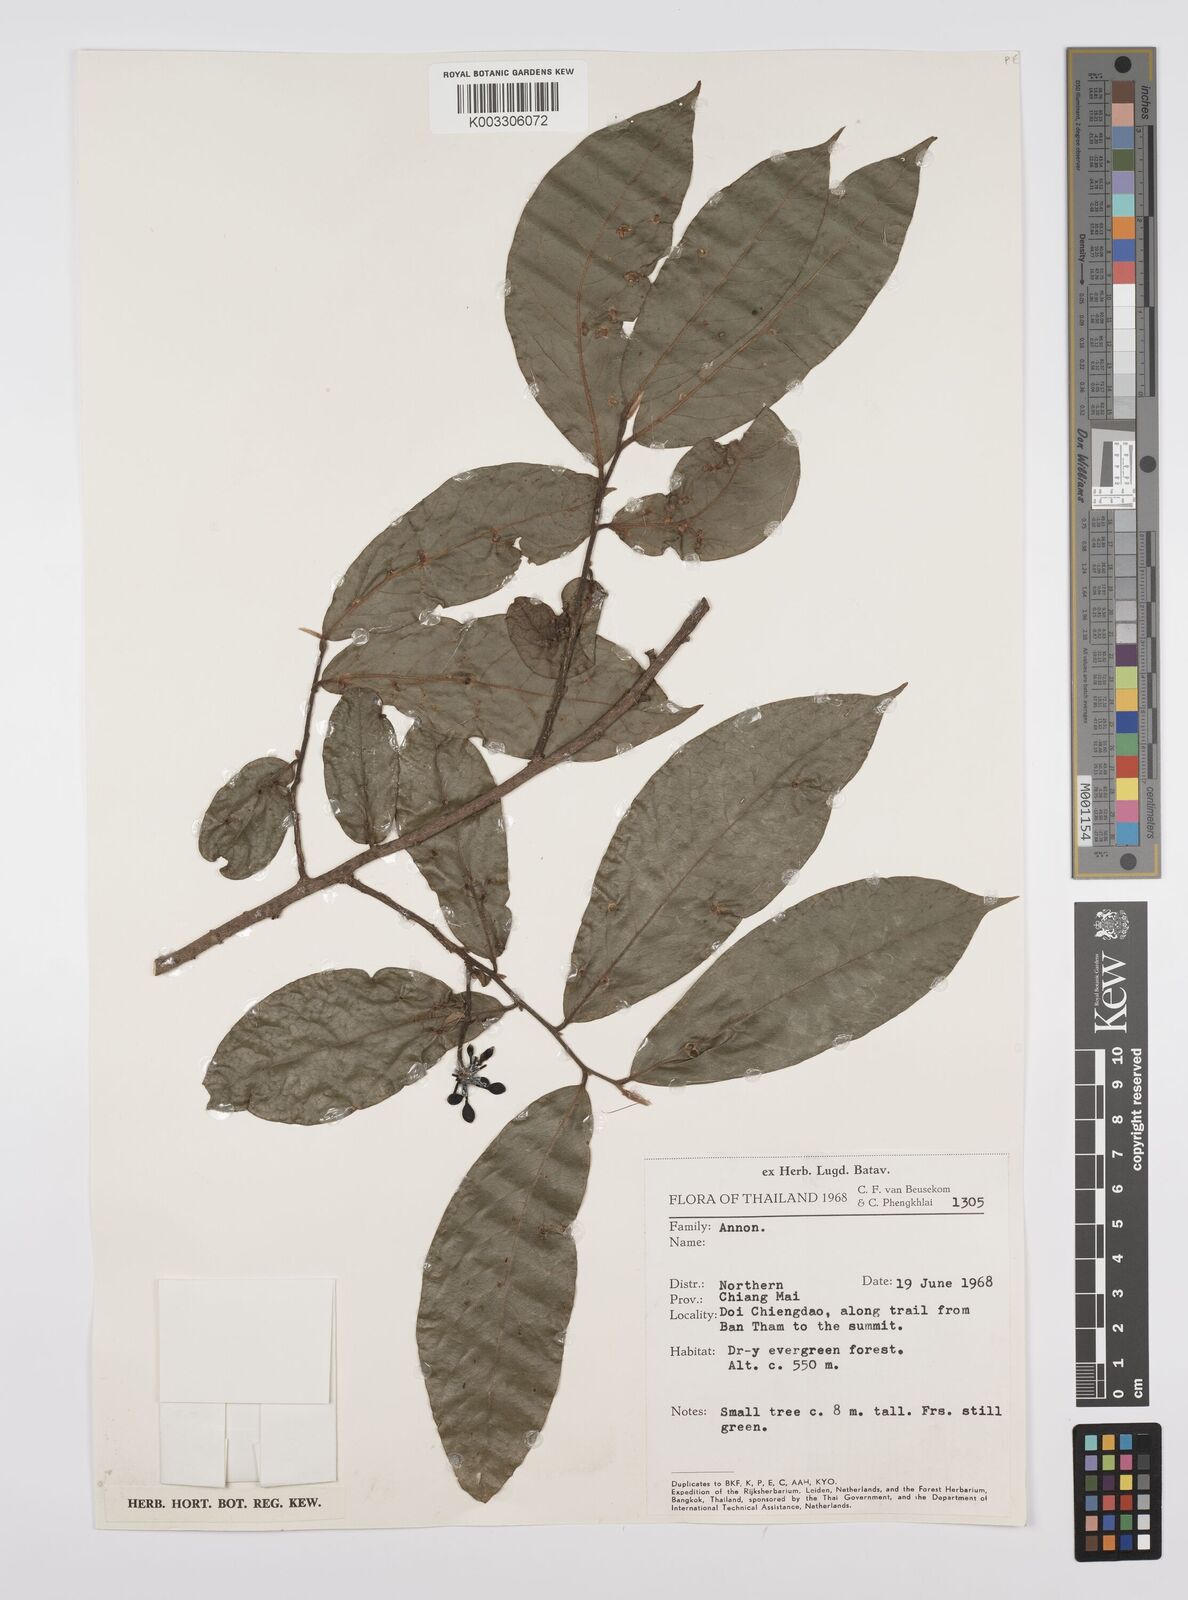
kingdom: Plantae
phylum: Tracheophyta
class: Magnoliopsida
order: Magnoliales
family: Annonaceae
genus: Huberantha
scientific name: Huberantha
